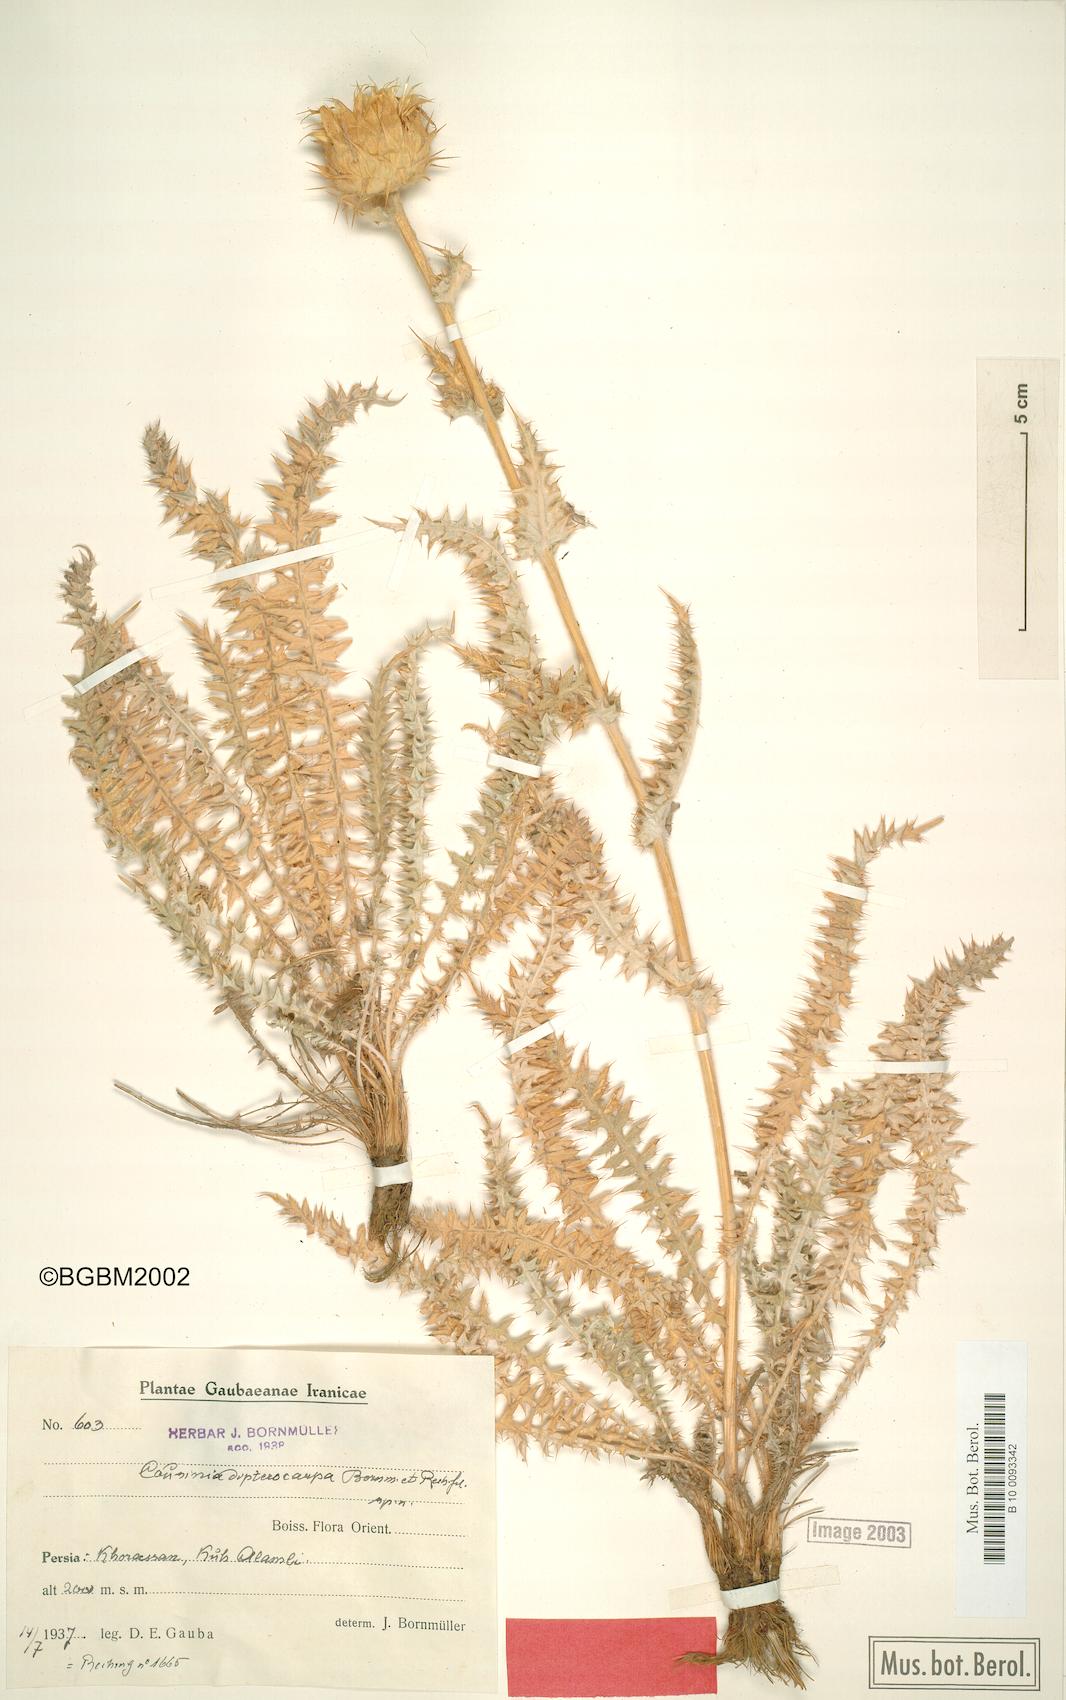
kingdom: Plantae
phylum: Tracheophyta
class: Magnoliopsida
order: Asterales
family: Asteraceae
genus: Cousinia
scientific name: Cousinia dipterocarpa
